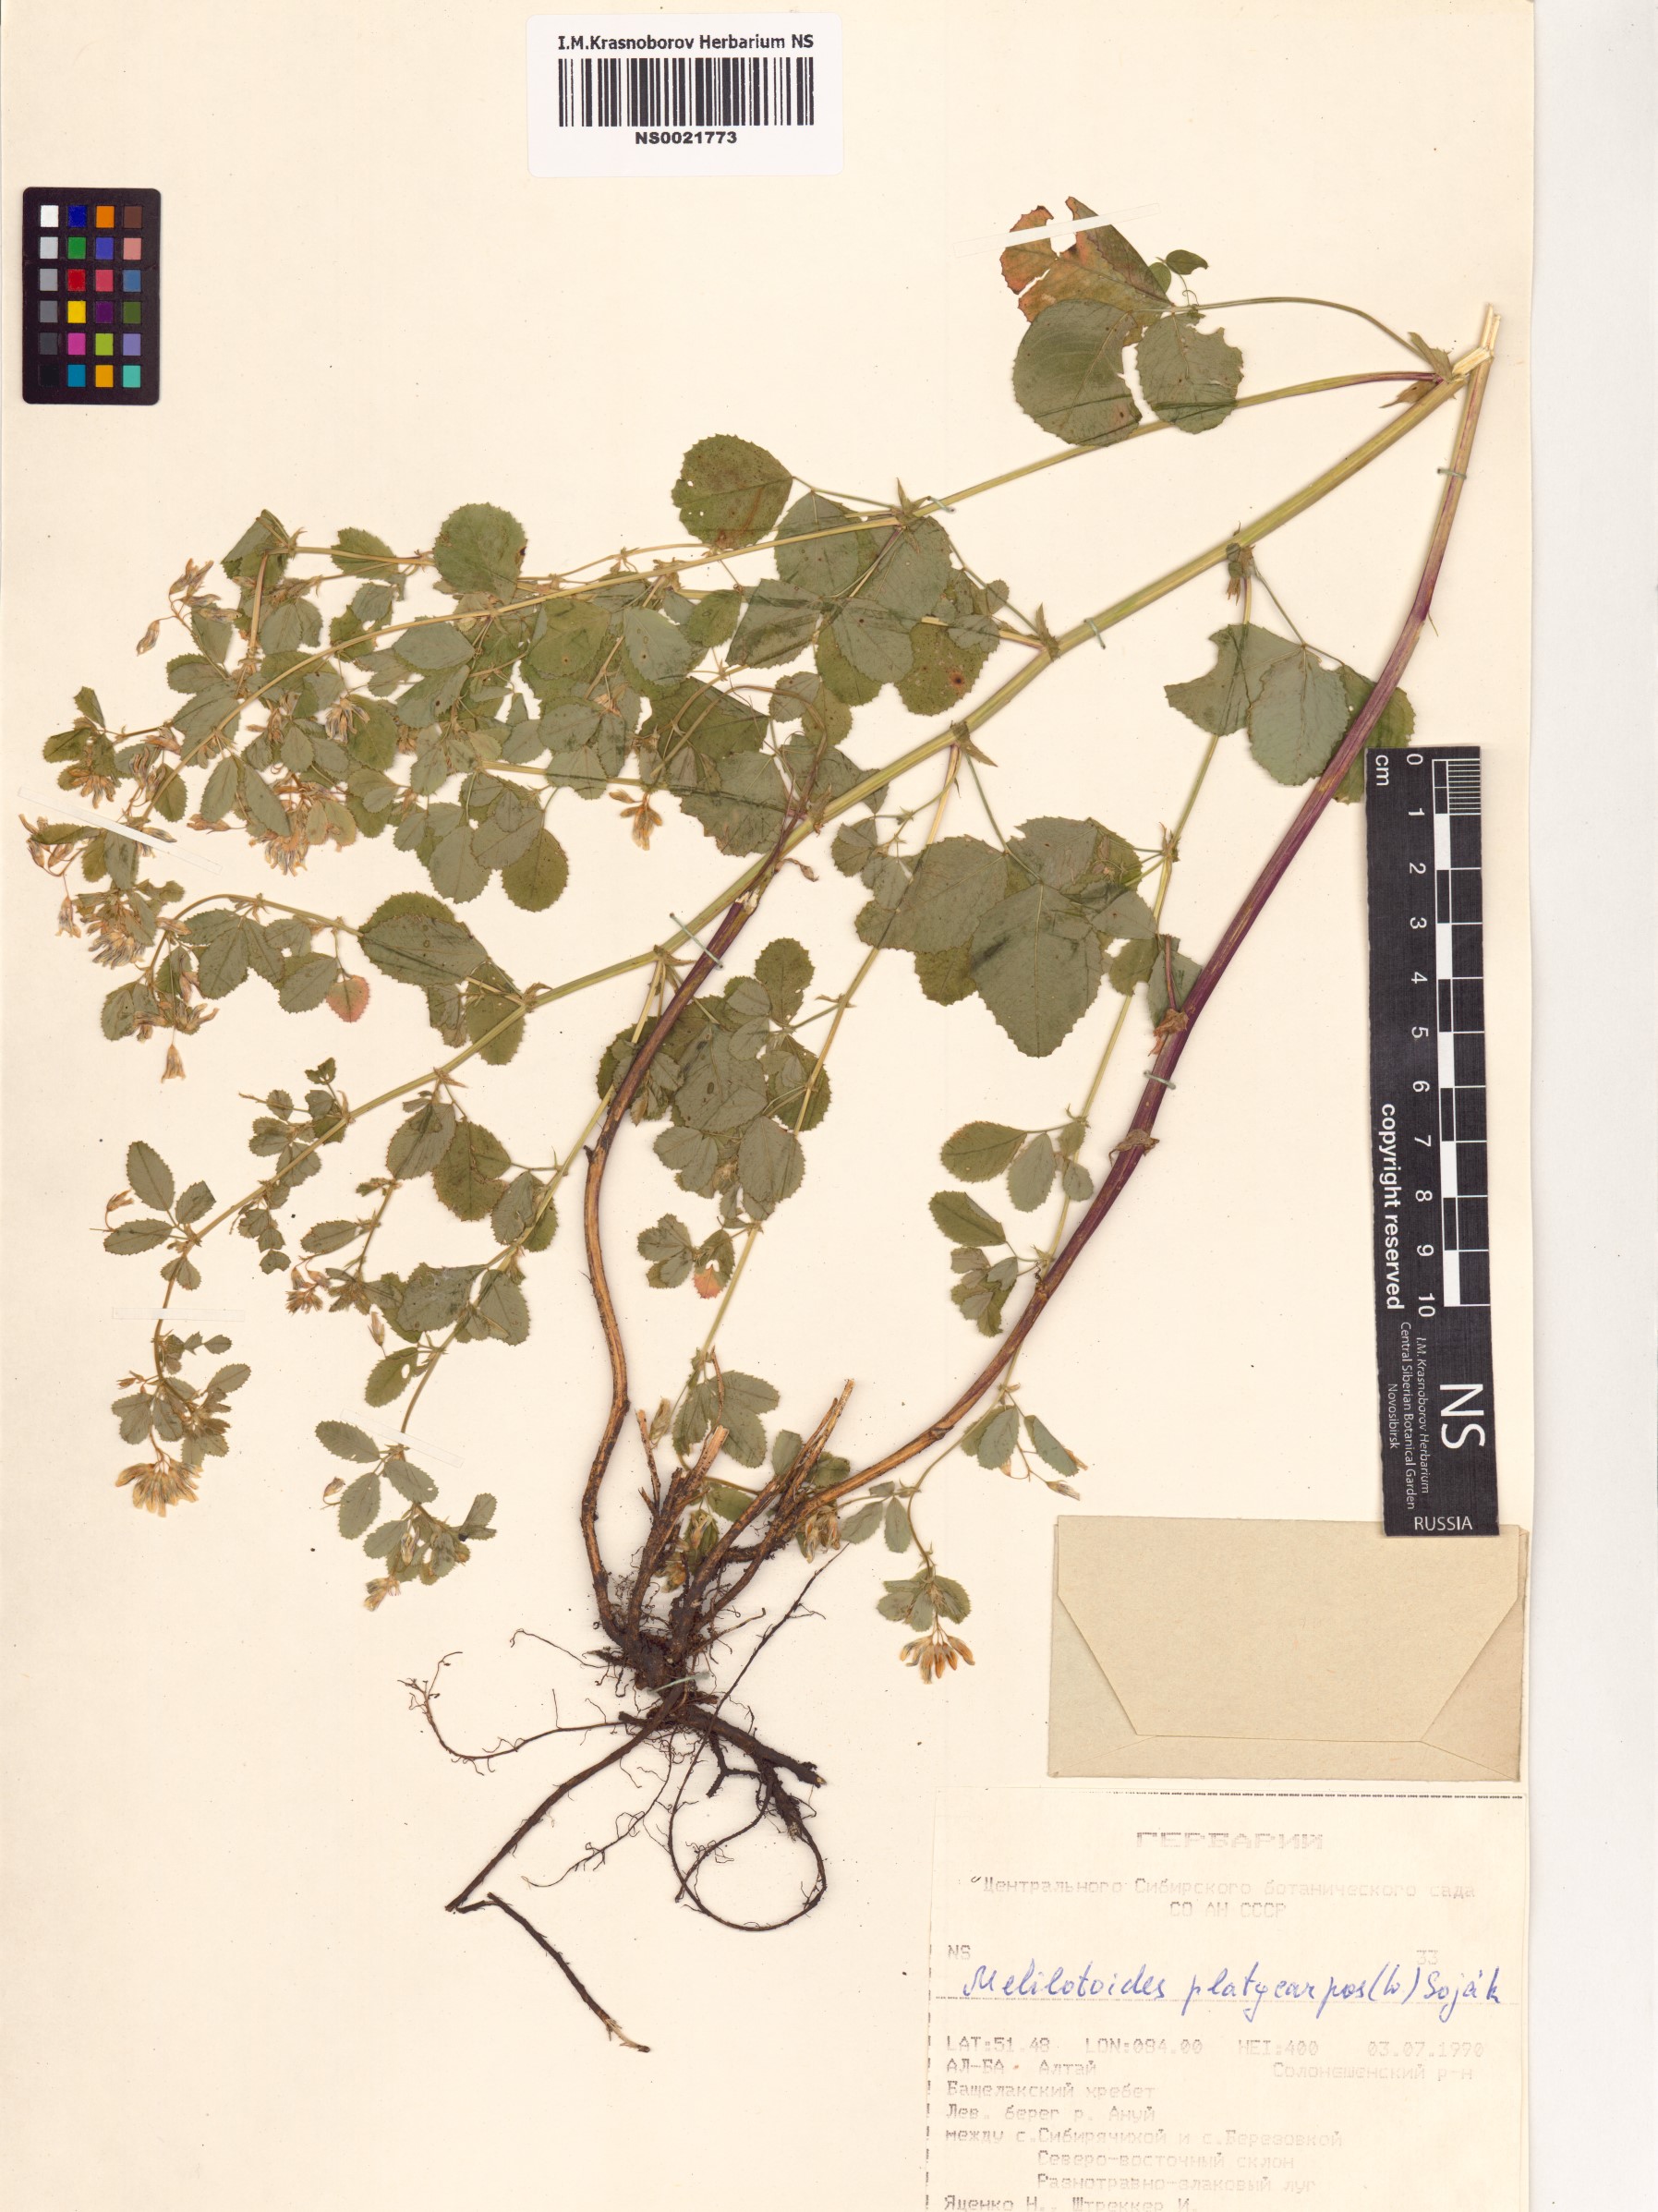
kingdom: Plantae
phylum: Tracheophyta
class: Magnoliopsida
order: Fabales
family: Fabaceae
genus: Medicago
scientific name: Medicago platycarpos
